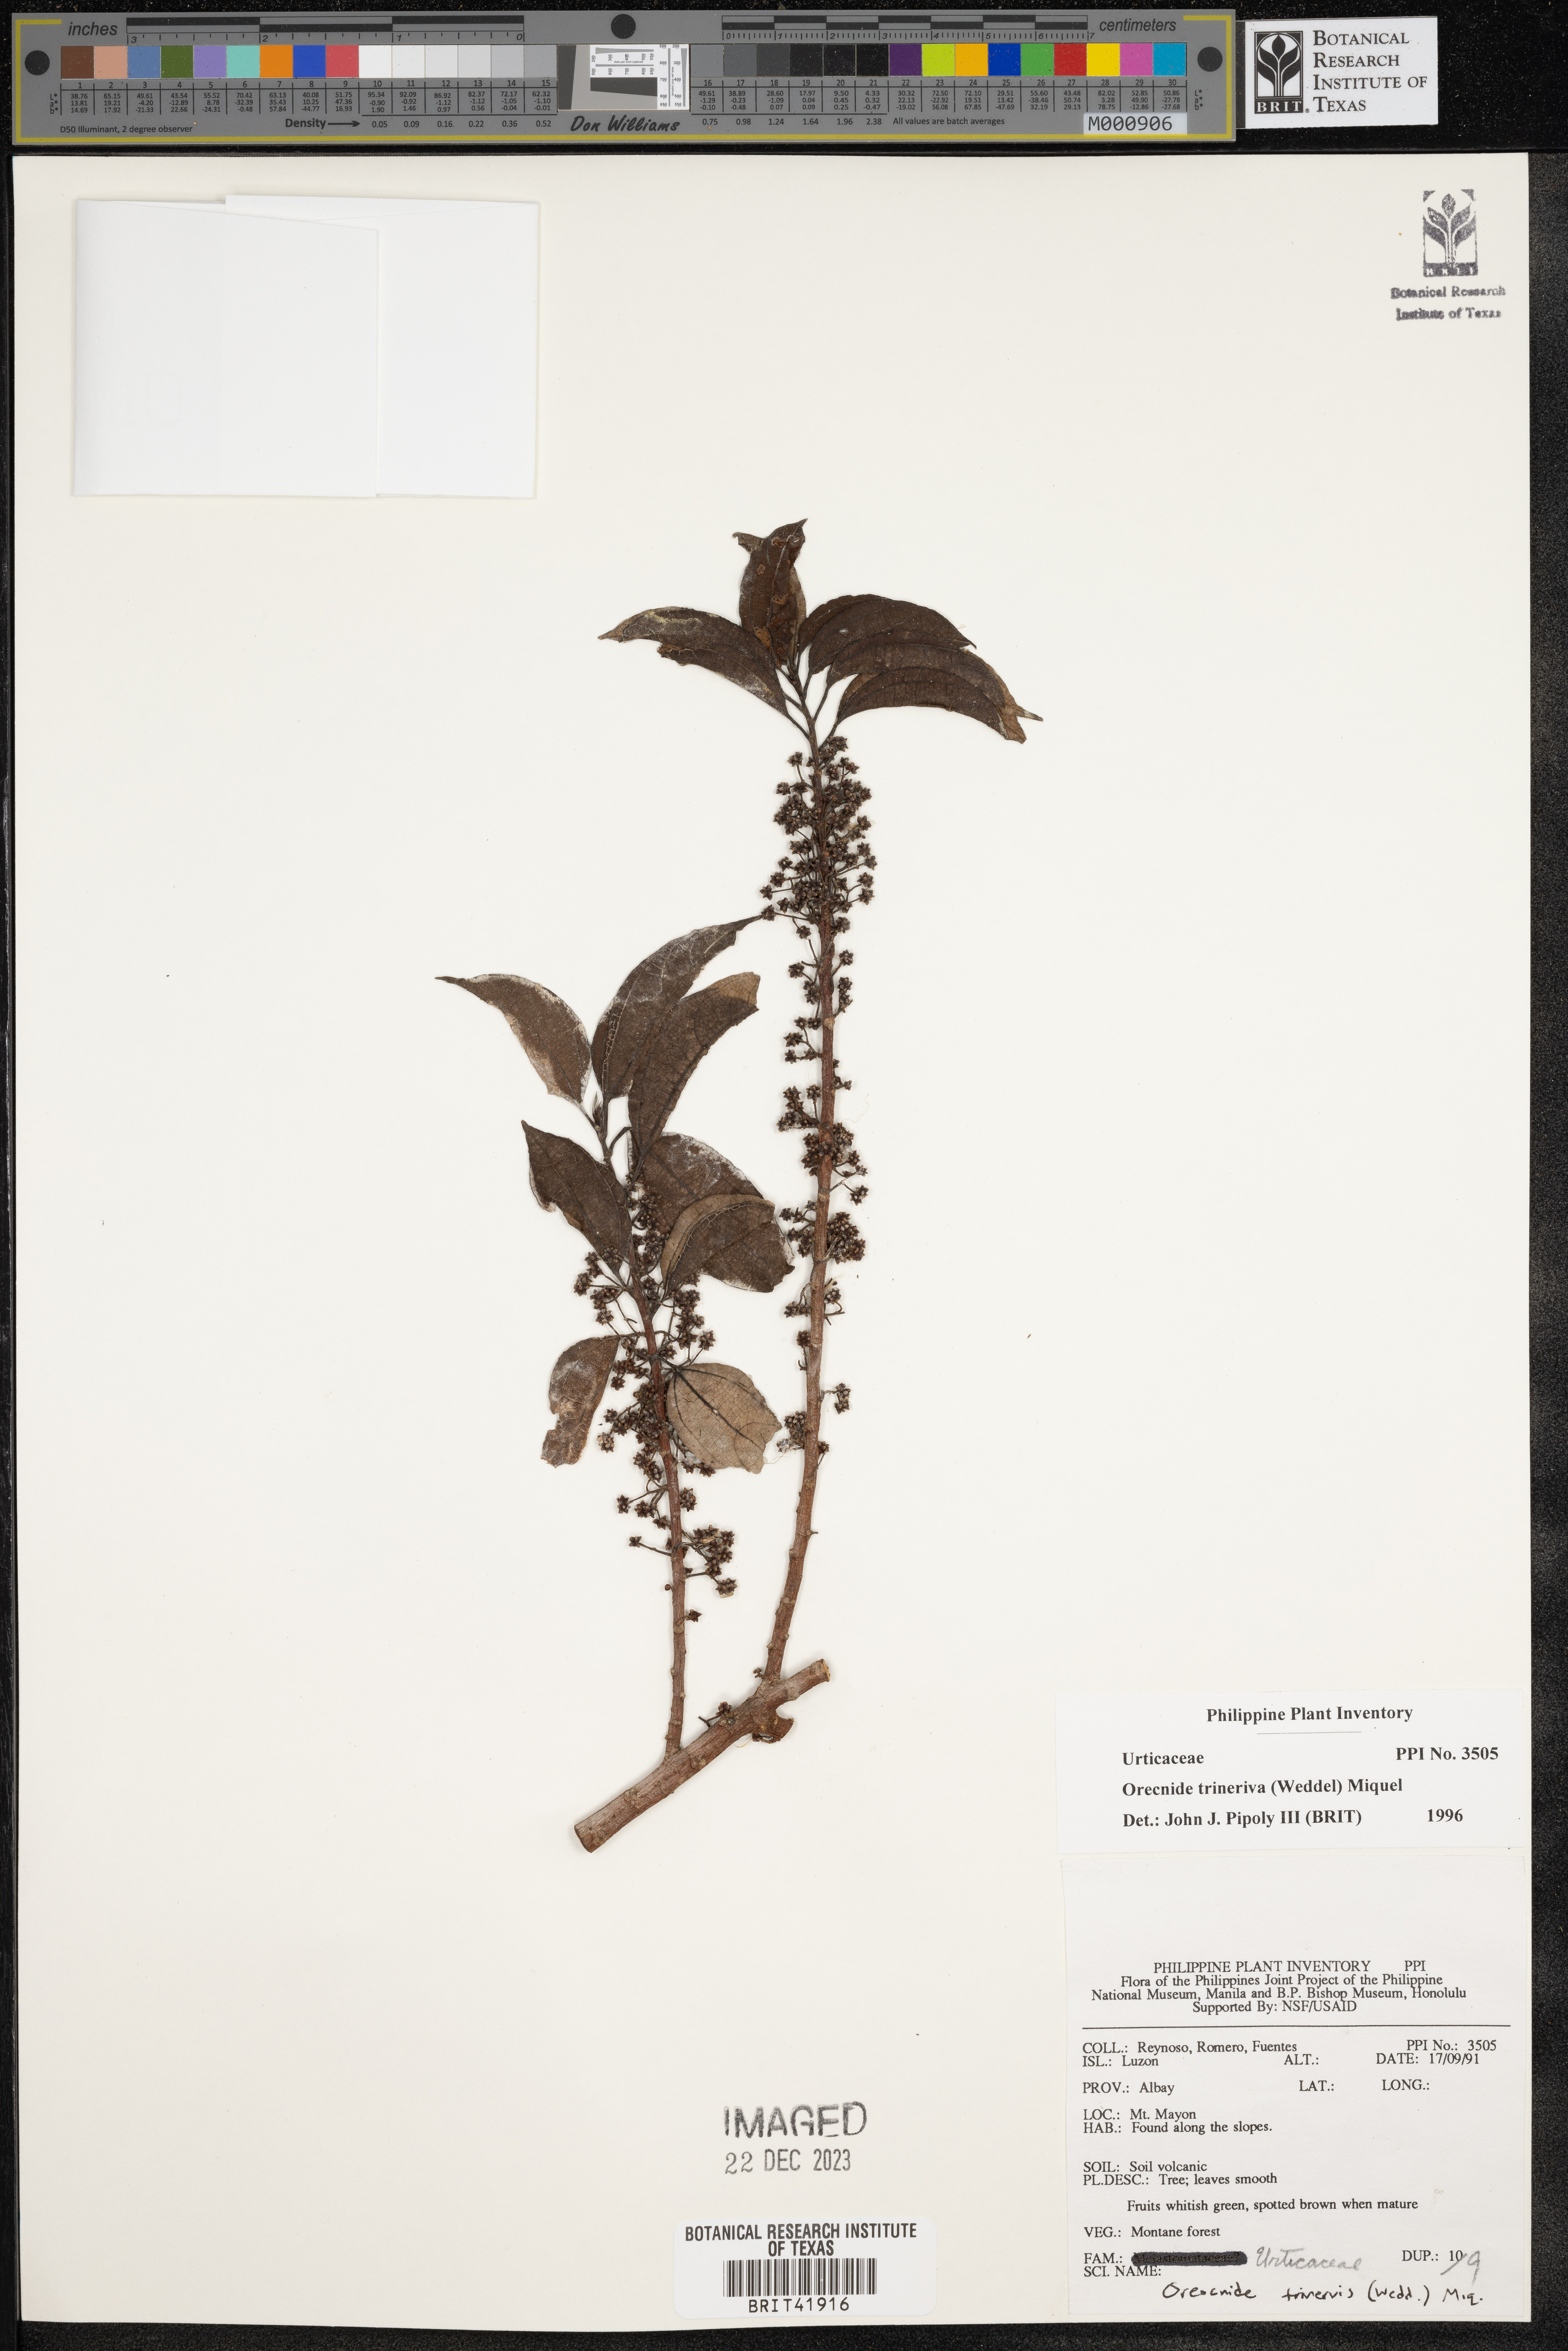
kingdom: Plantae
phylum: Tracheophyta
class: Magnoliopsida
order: Rosales
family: Urticaceae
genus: Oreocnide
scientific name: Oreocnide trinervis
